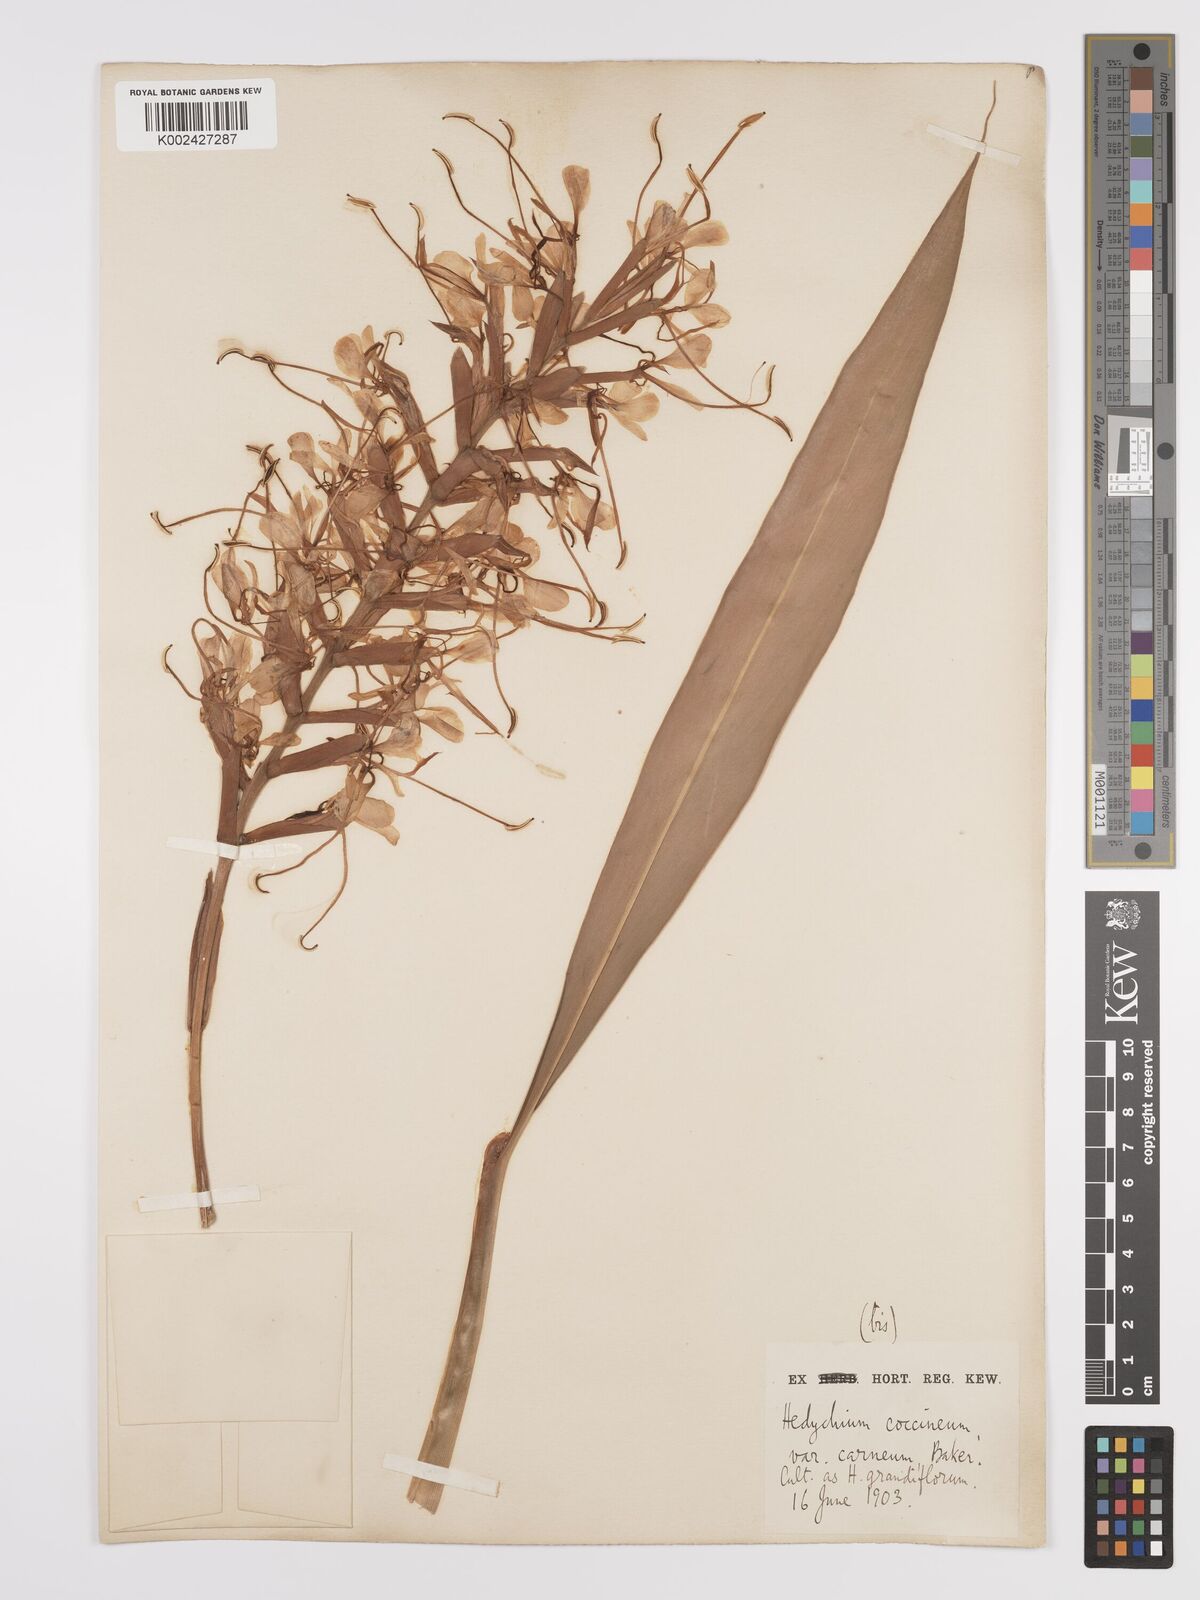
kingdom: Plantae
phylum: Tracheophyta
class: Liliopsida
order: Zingiberales
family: Zingiberaceae
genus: Hedychium
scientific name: Hedychium coccineum
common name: Red ginger-lily
